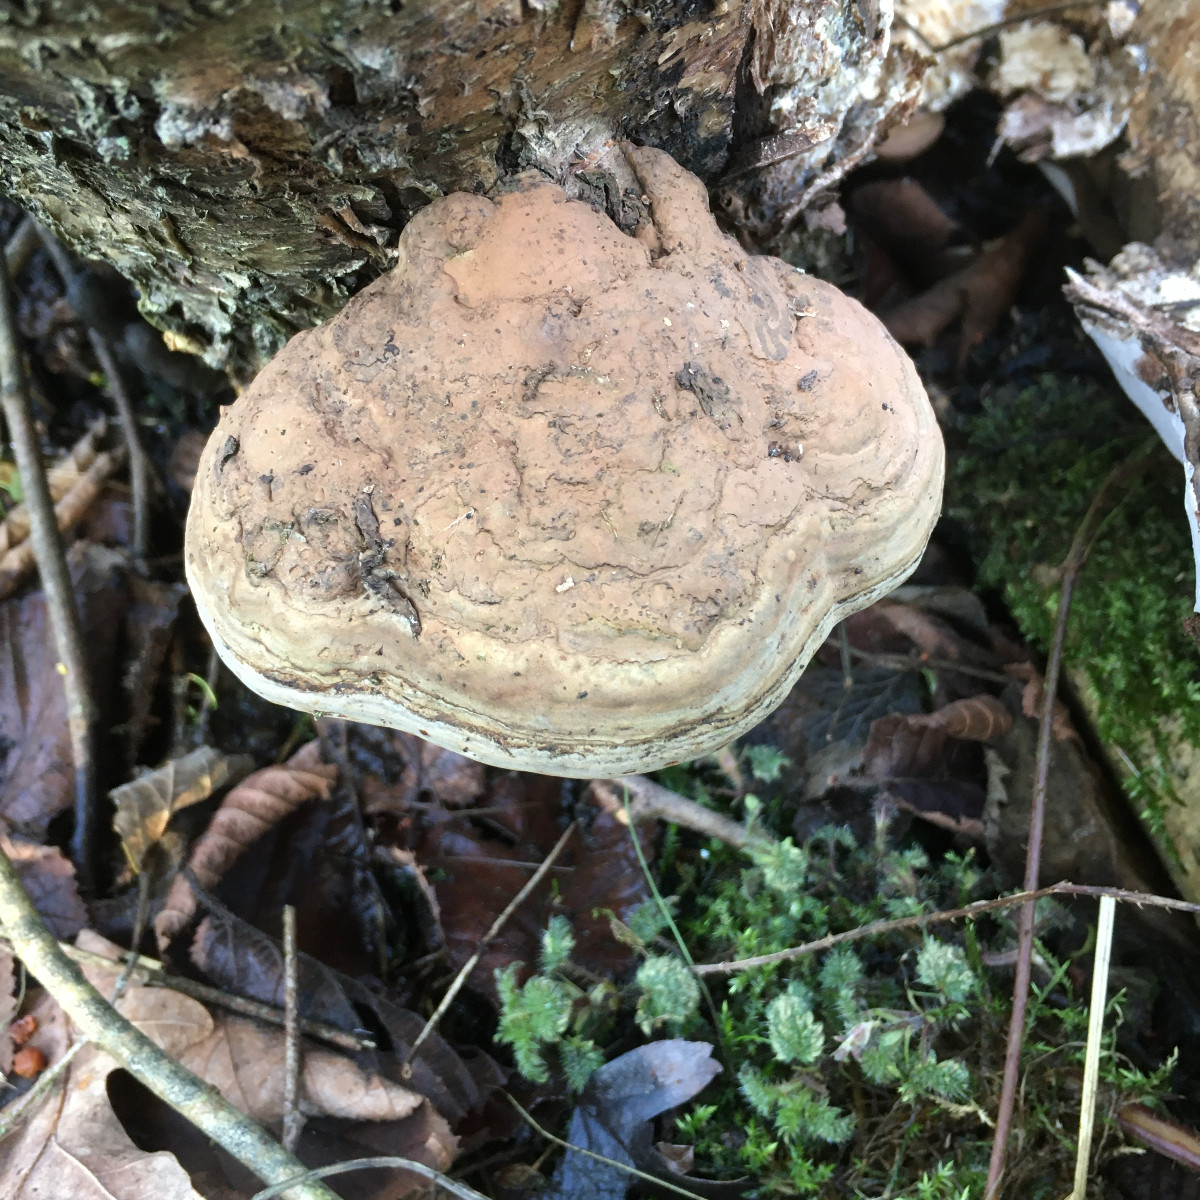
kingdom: Fungi
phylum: Basidiomycota
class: Agaricomycetes
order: Polyporales
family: Polyporaceae
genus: Ganoderma
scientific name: Ganoderma applanatum
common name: flad lakporesvamp
